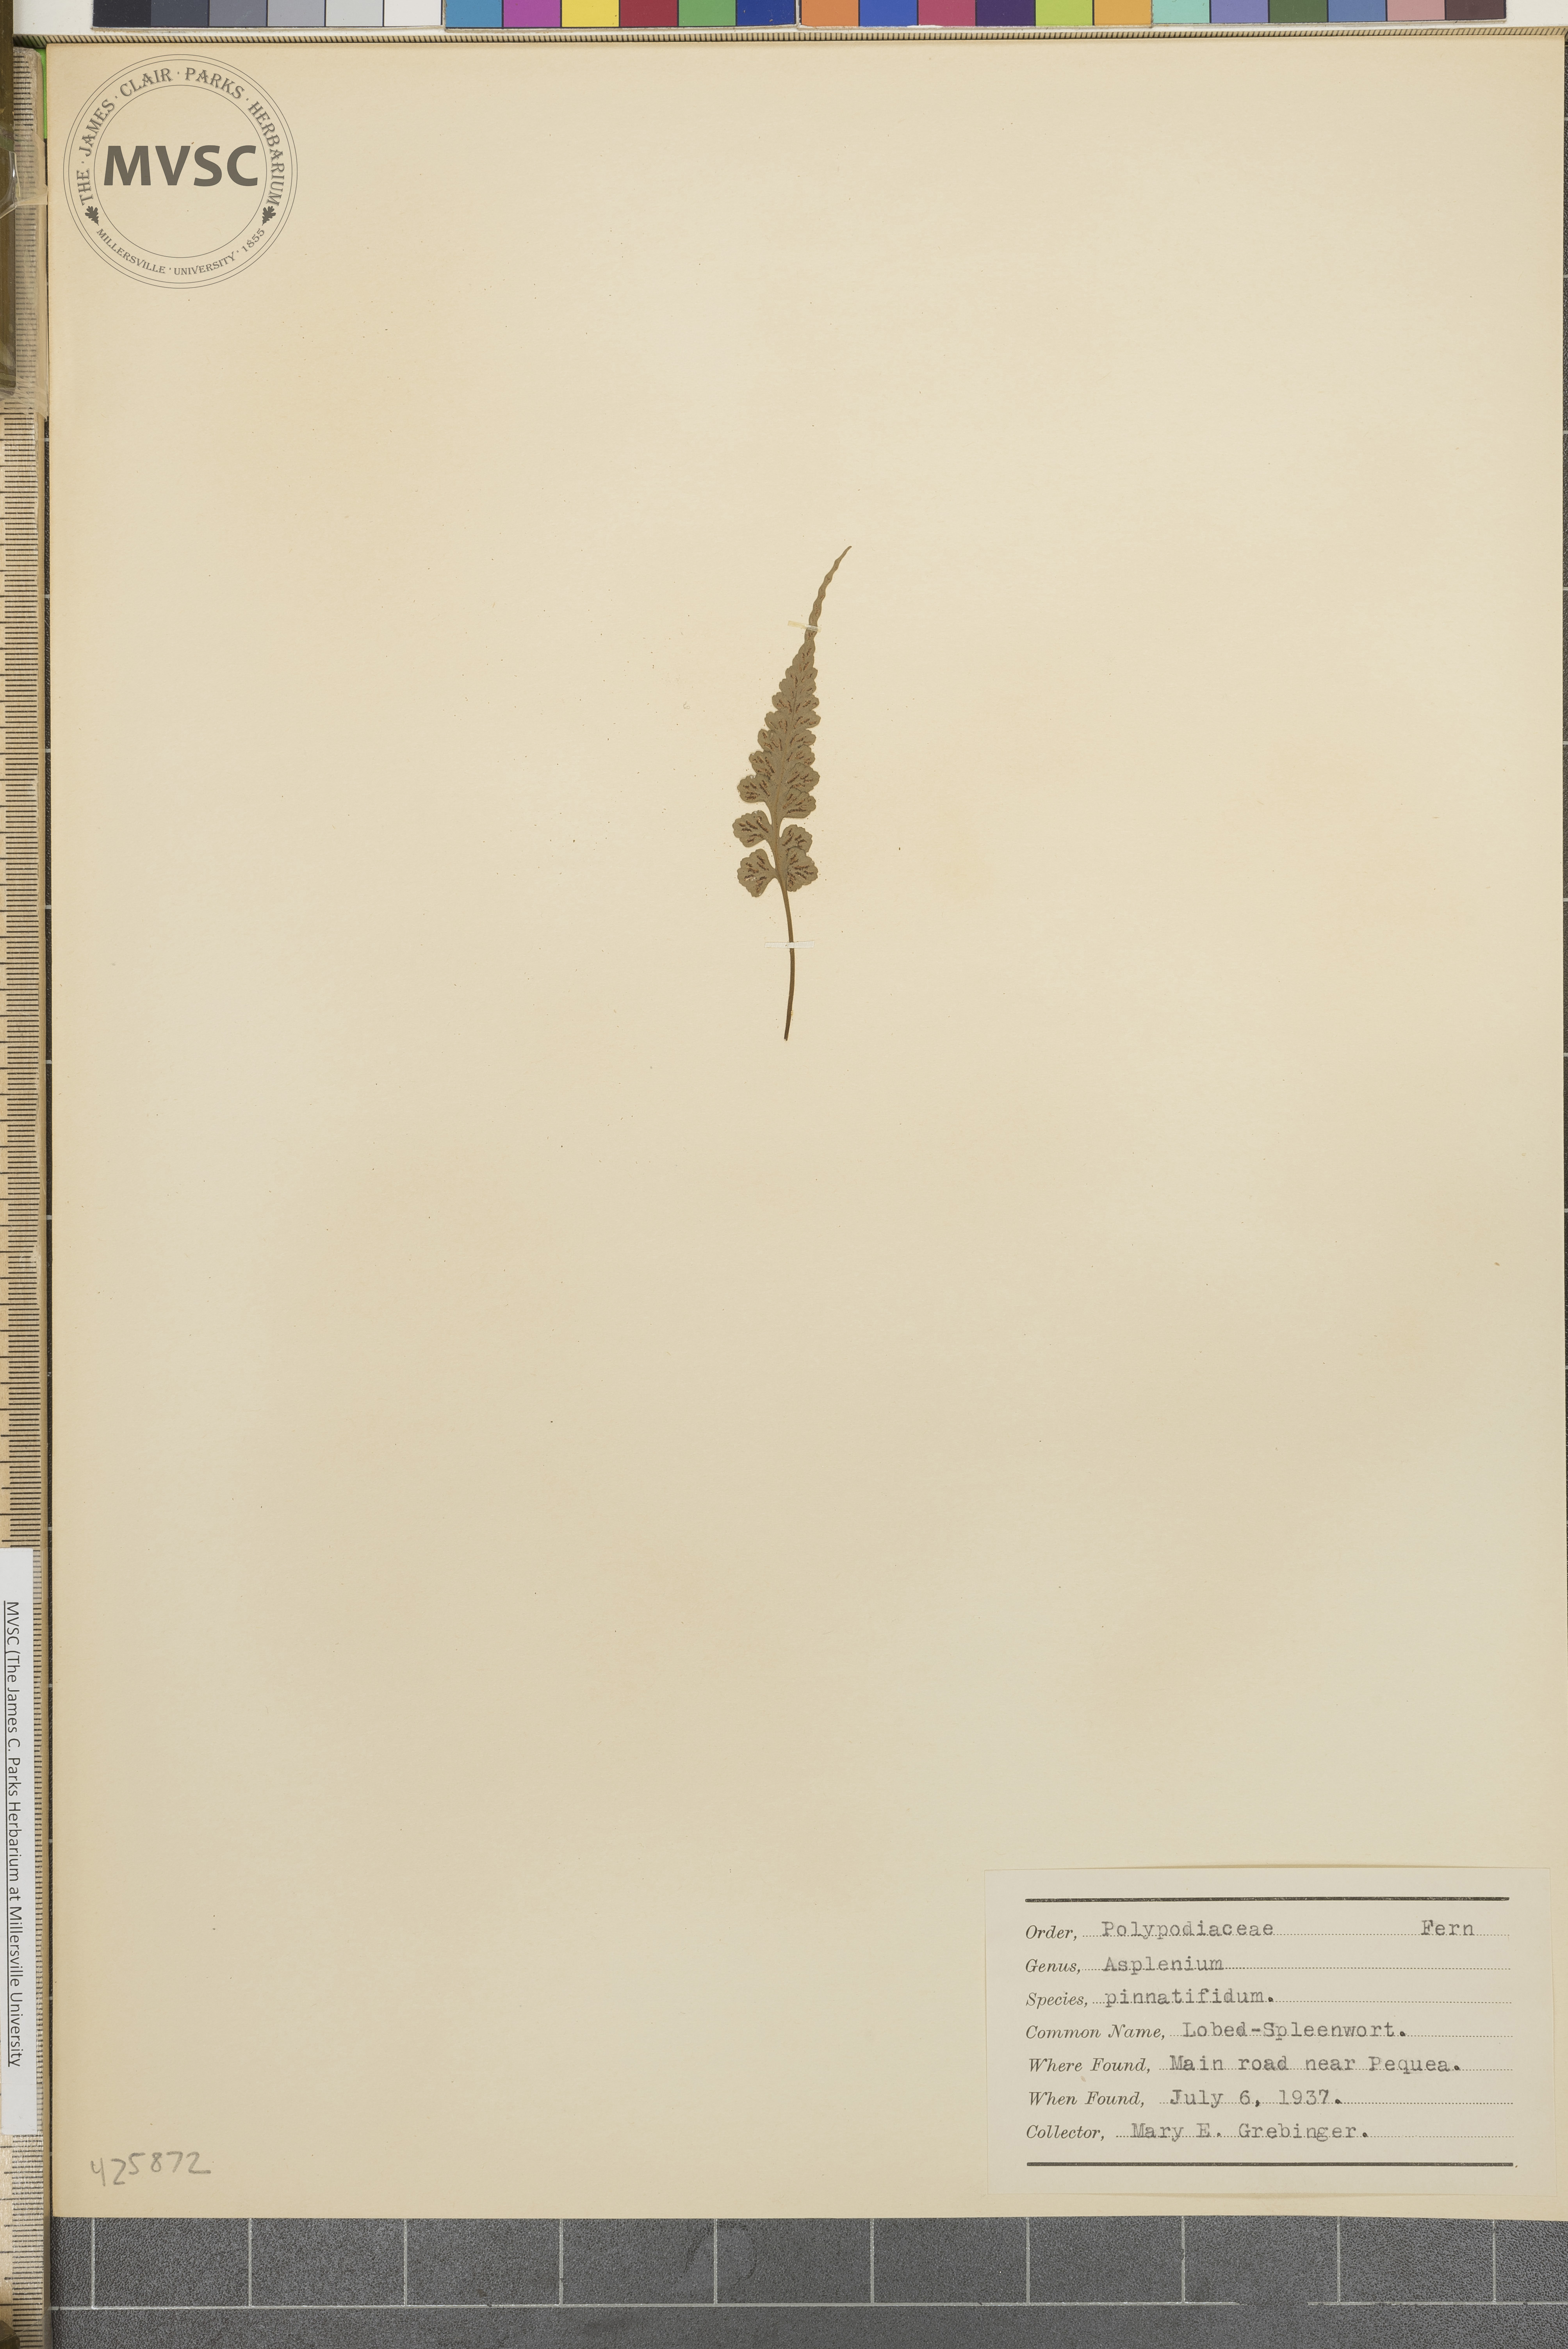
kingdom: Plantae
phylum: Tracheophyta
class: Polypodiopsida
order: Polypodiales
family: Aspleniaceae
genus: Asplenium
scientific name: Asplenium pinnatifidum
